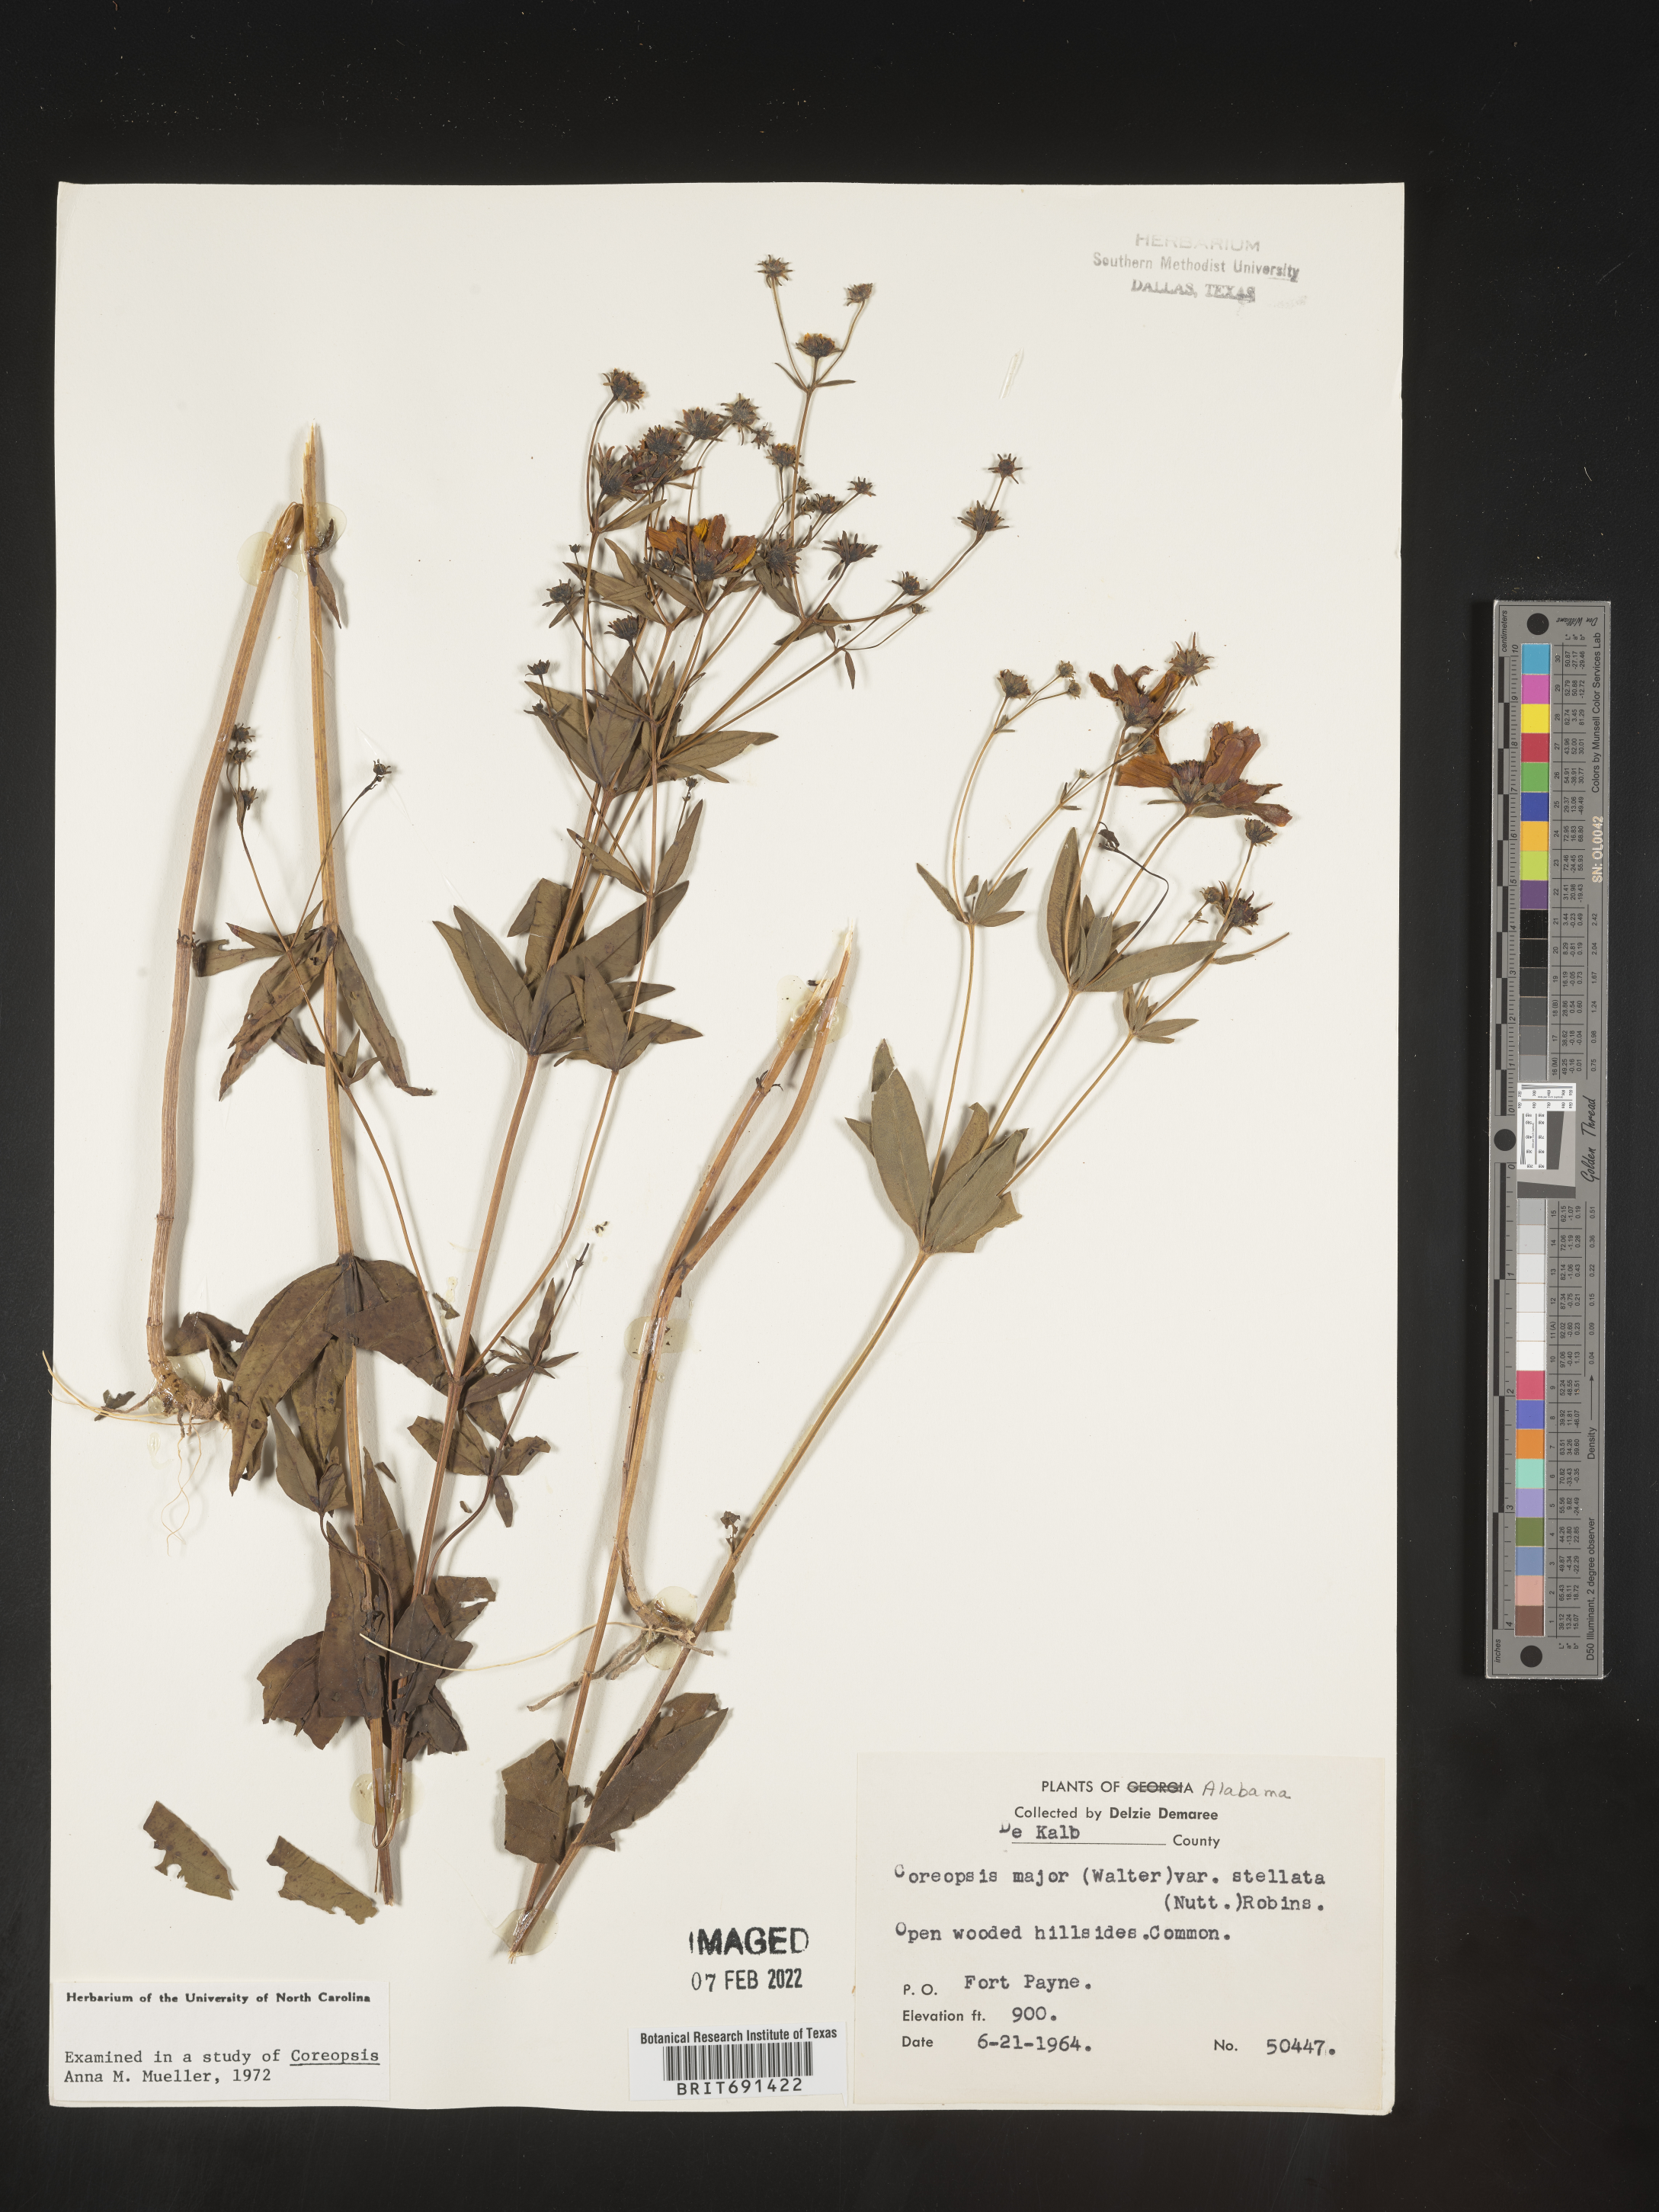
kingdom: Plantae
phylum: Tracheophyta
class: Magnoliopsida
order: Asterales
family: Asteraceae
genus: Coreopsis
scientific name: Coreopsis major
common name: Forest tickseed
